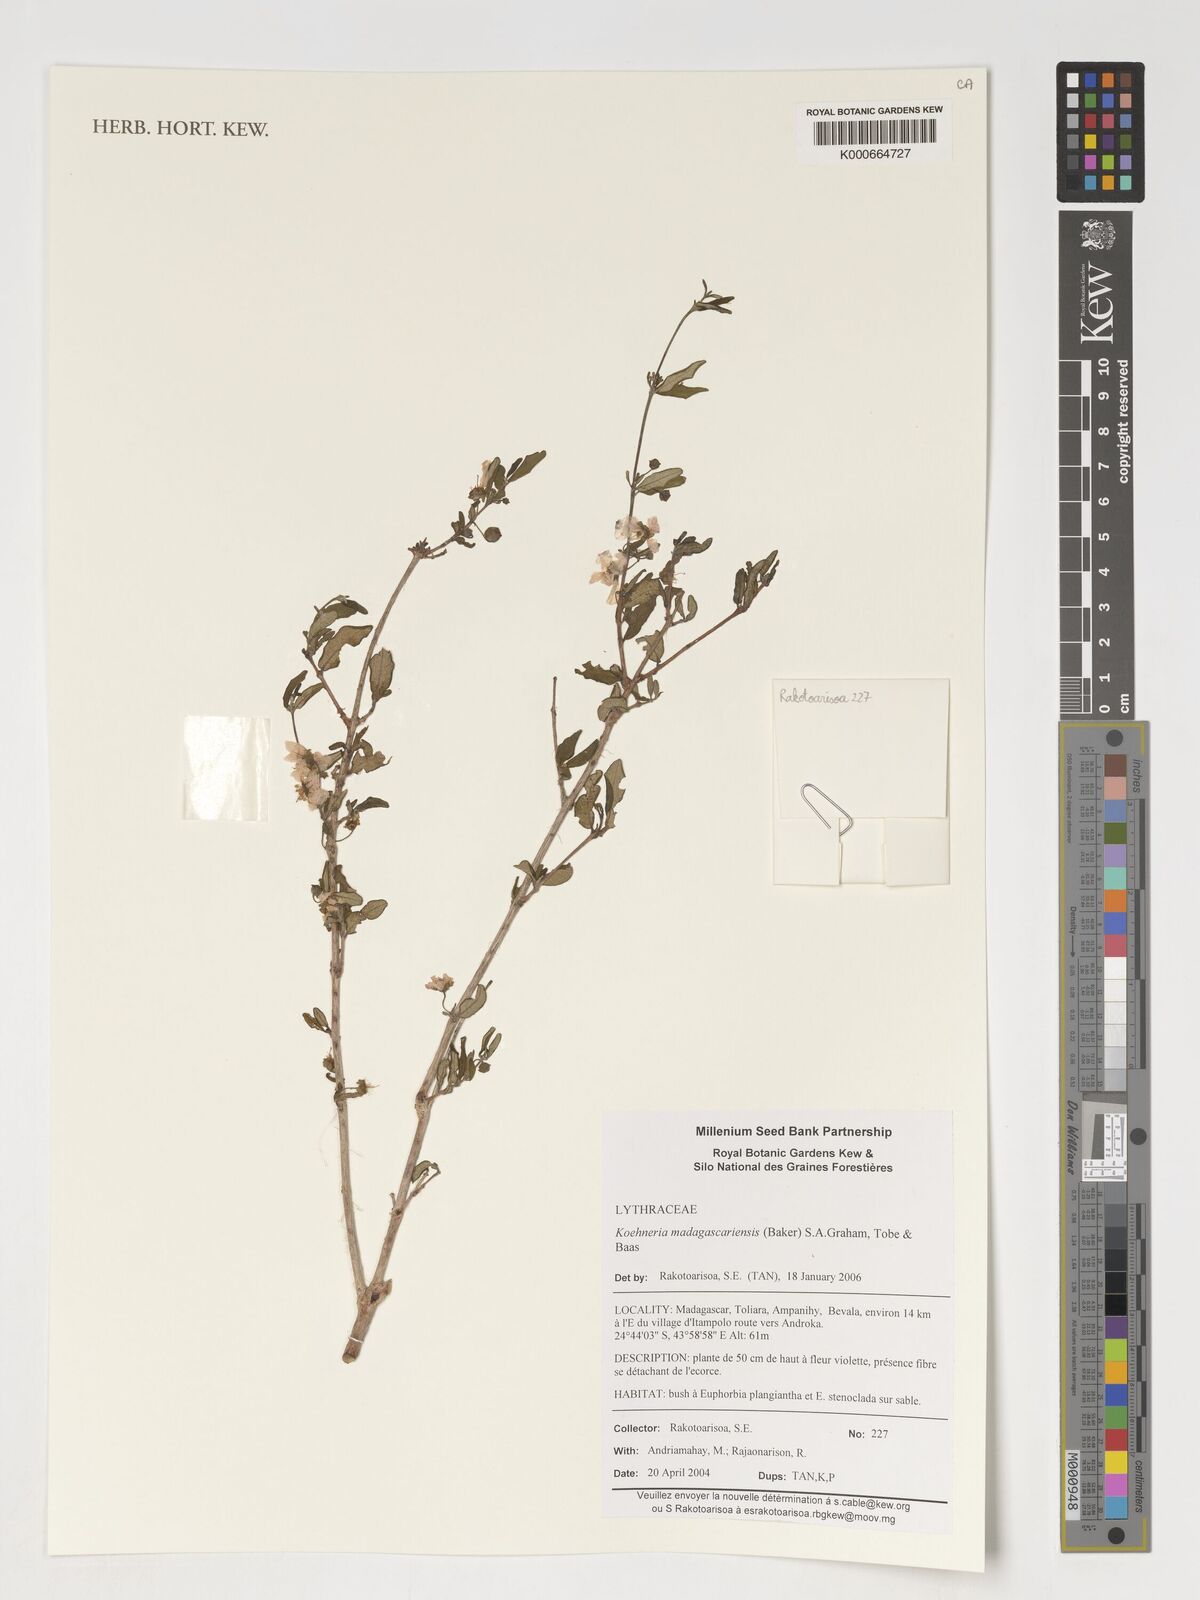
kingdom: Plantae
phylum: Tracheophyta
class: Magnoliopsida
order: Myrtales
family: Lythraceae
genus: Koehneria
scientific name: Koehneria madagascariensis
